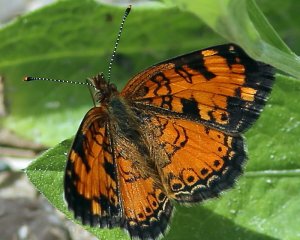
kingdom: Animalia
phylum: Arthropoda
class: Insecta
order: Lepidoptera
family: Nymphalidae
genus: Phyciodes
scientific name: Phyciodes tharos
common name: Northern Crescent
